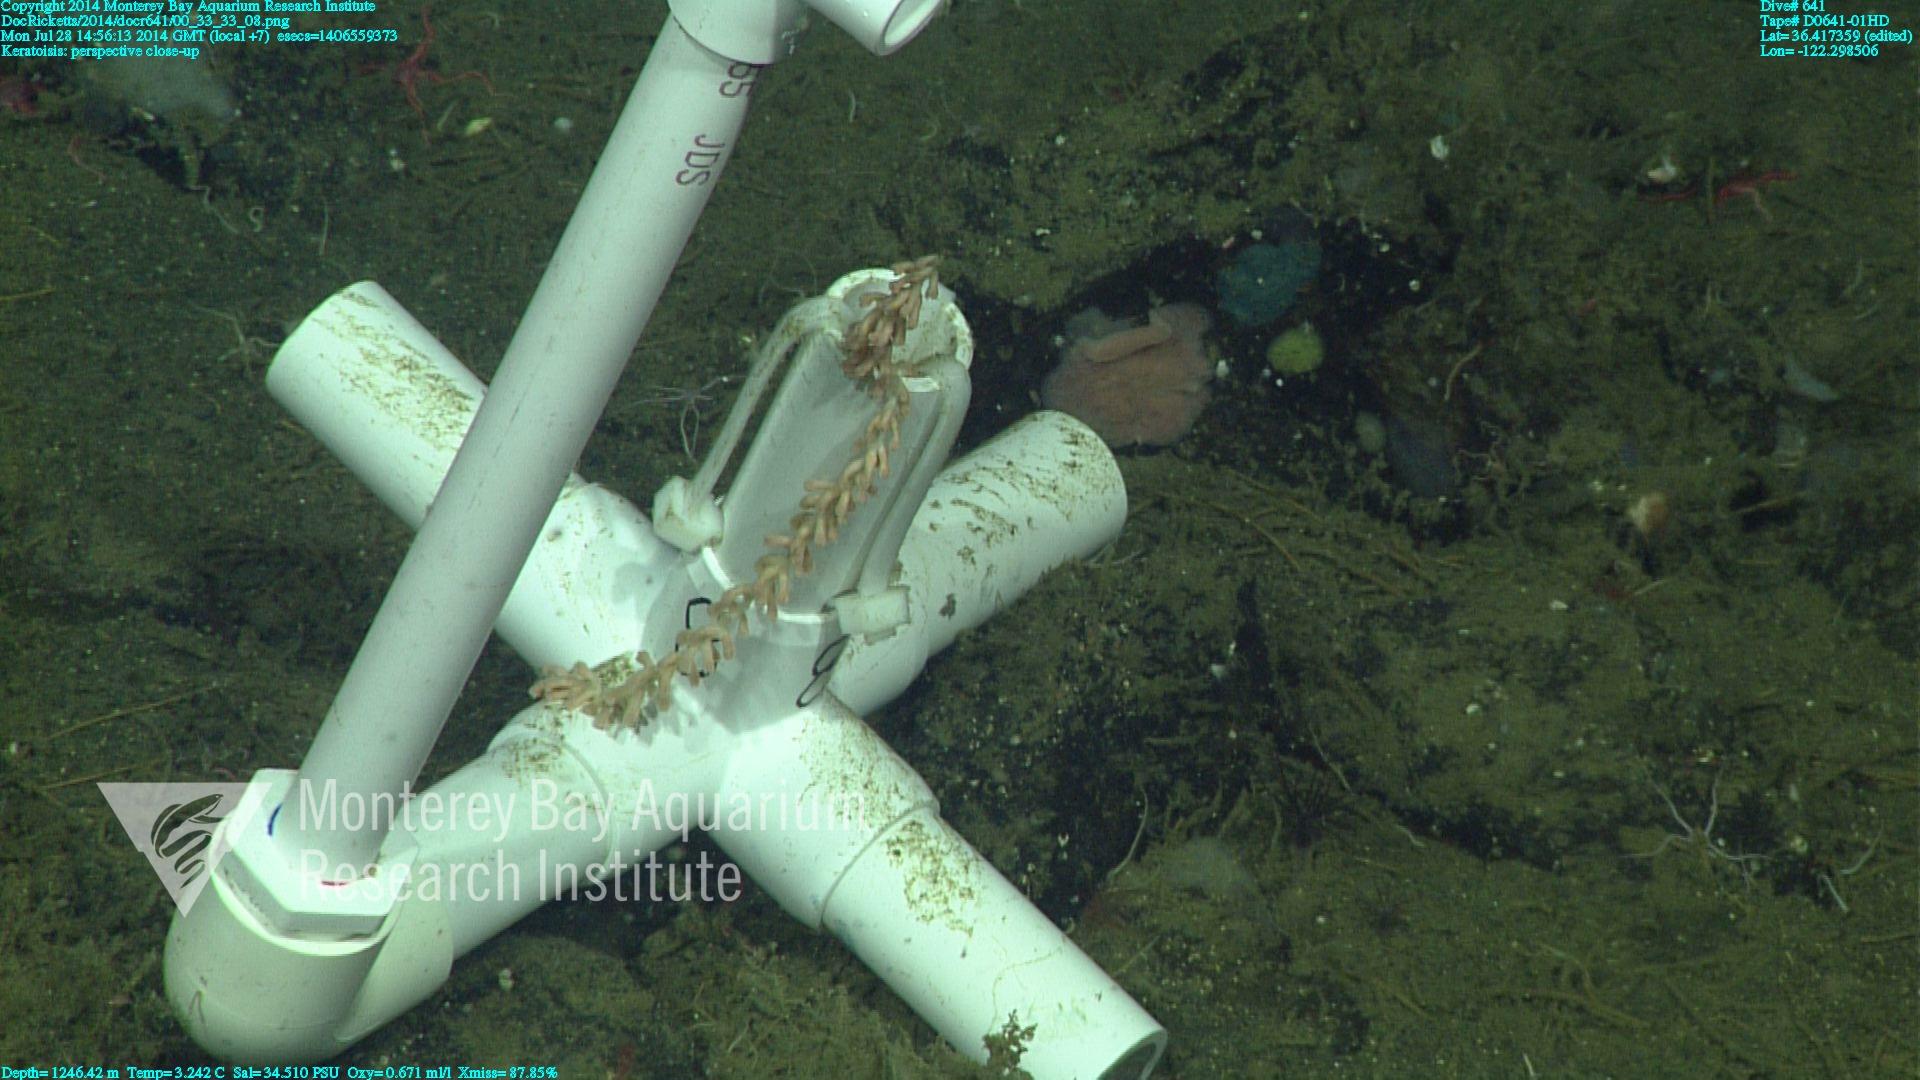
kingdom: Animalia
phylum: Cnidaria
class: Anthozoa
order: Scleralcyonacea
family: Keratoisididae
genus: Keratoisis
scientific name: Keratoisis
